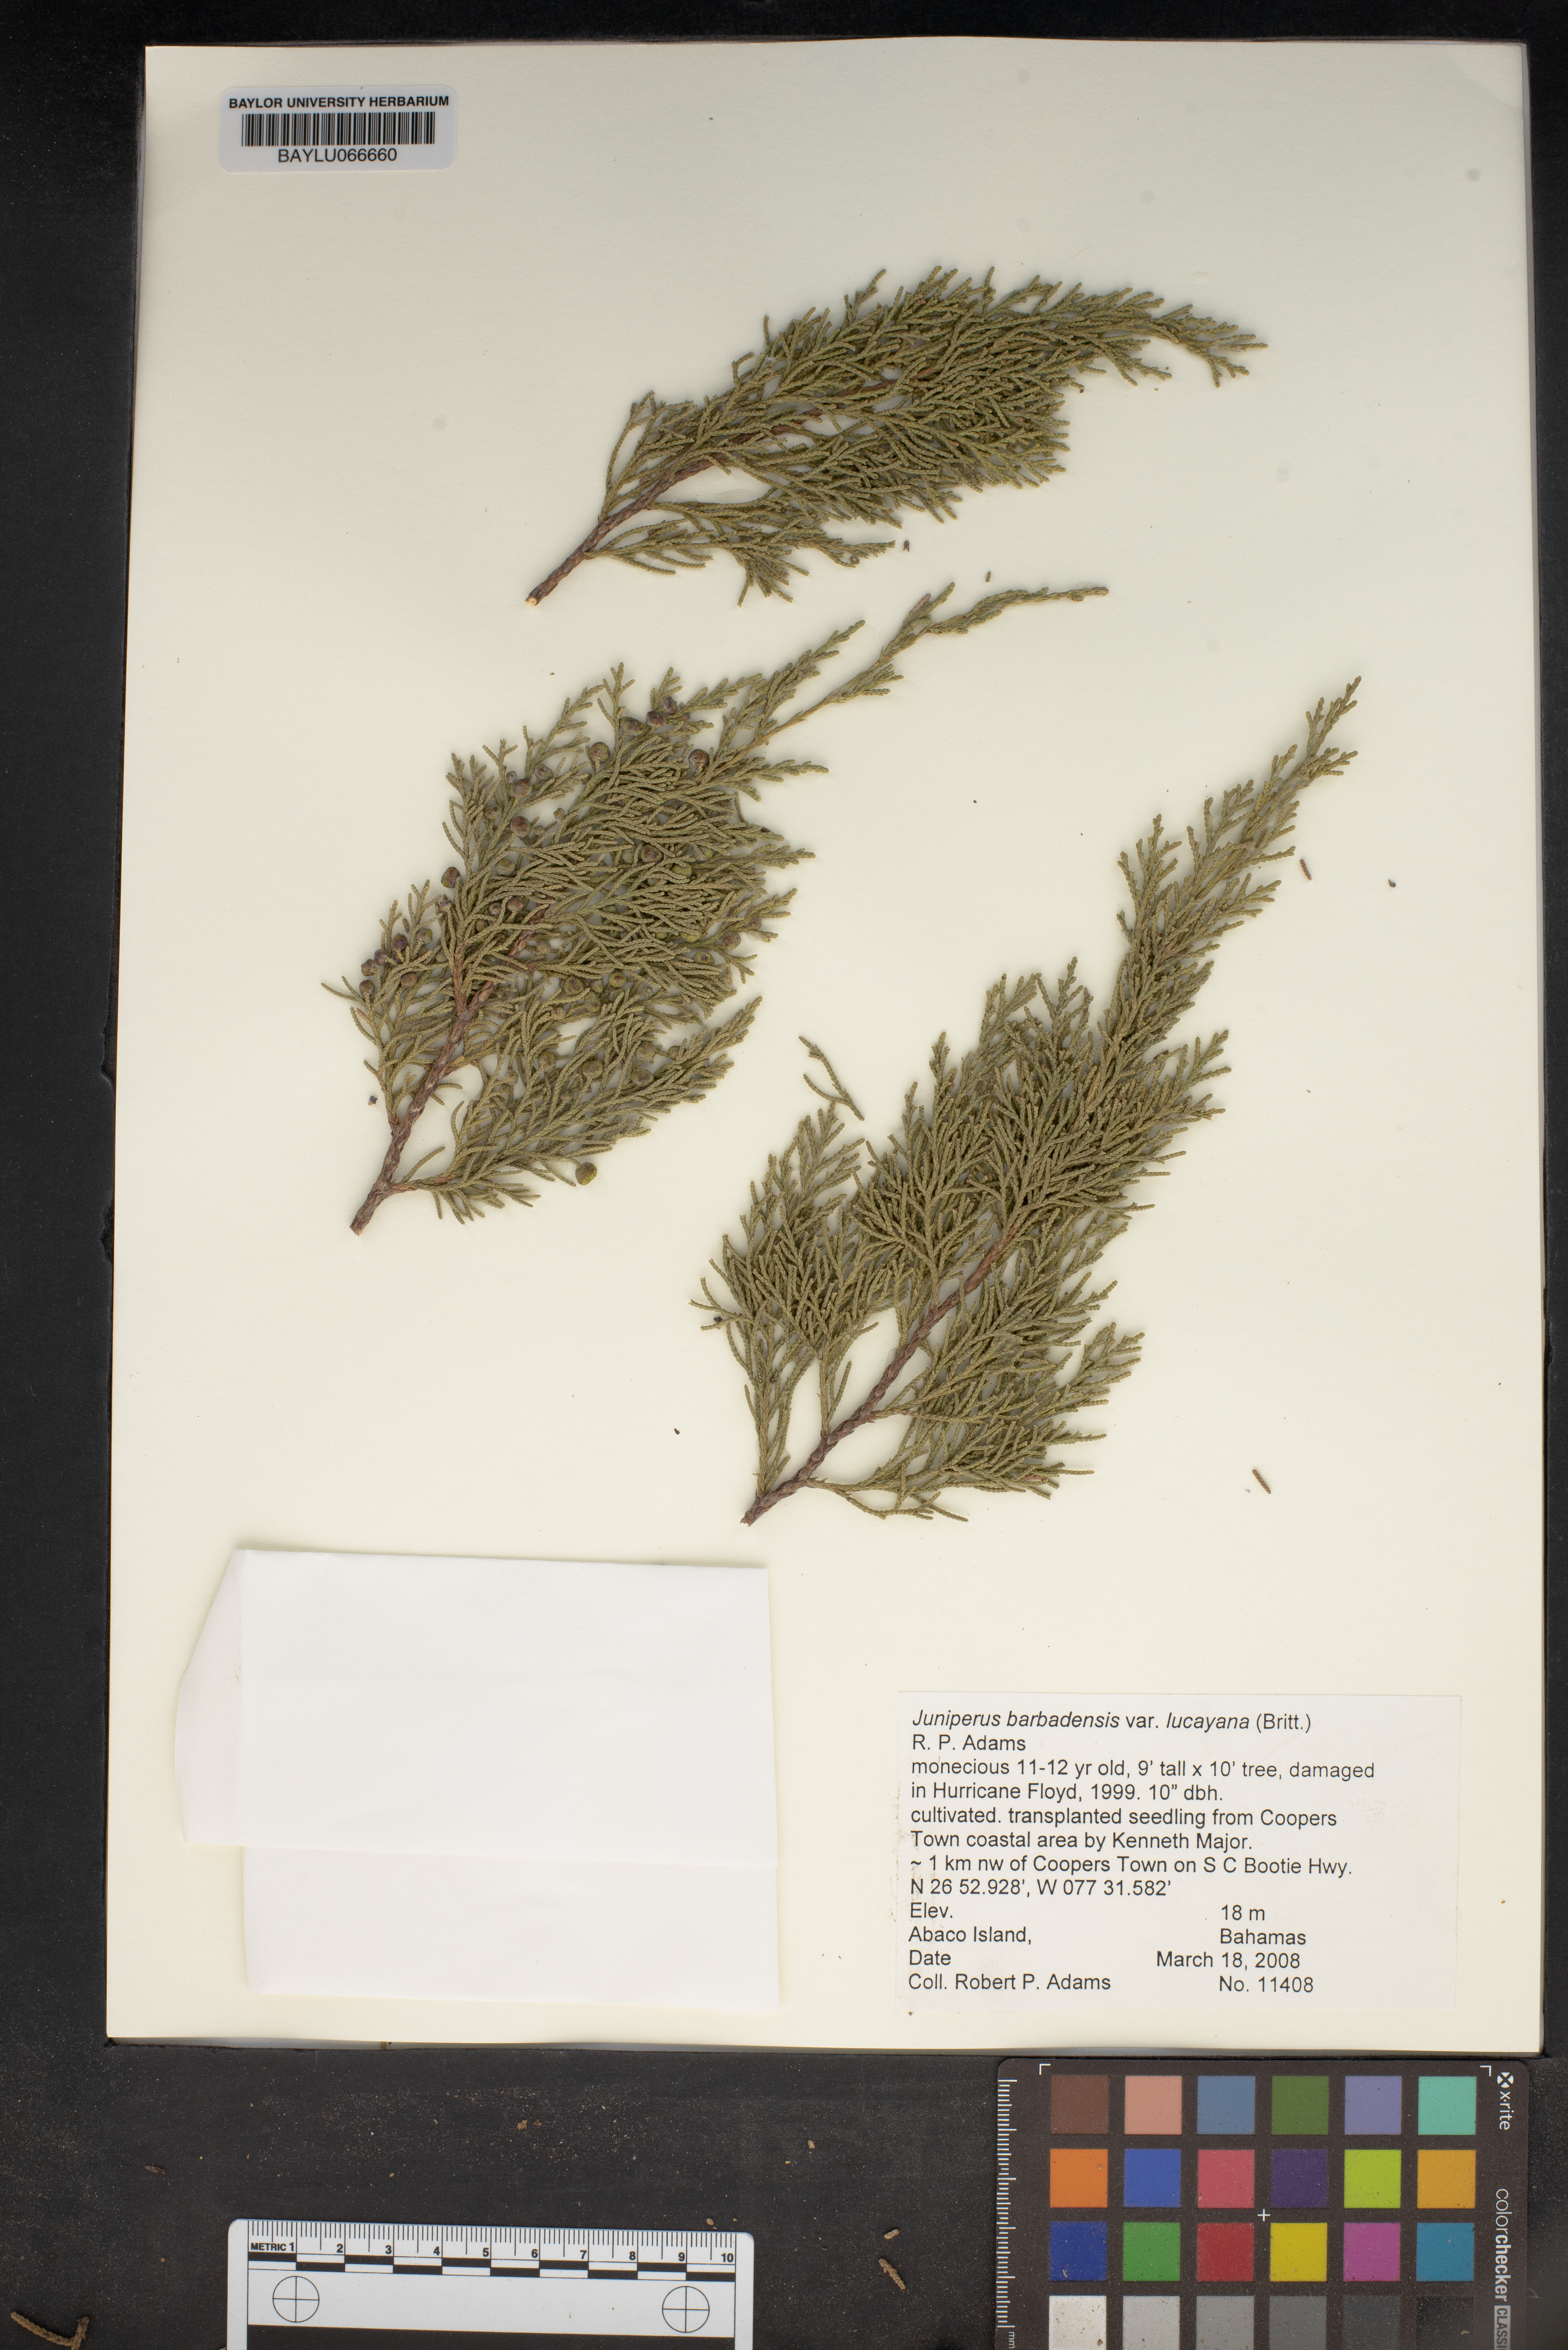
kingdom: Plantae
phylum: Tracheophyta
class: Pinopsida
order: Pinales
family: Cupressaceae
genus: Juniperus
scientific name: Juniperus barbadensis
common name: West indies juniper
